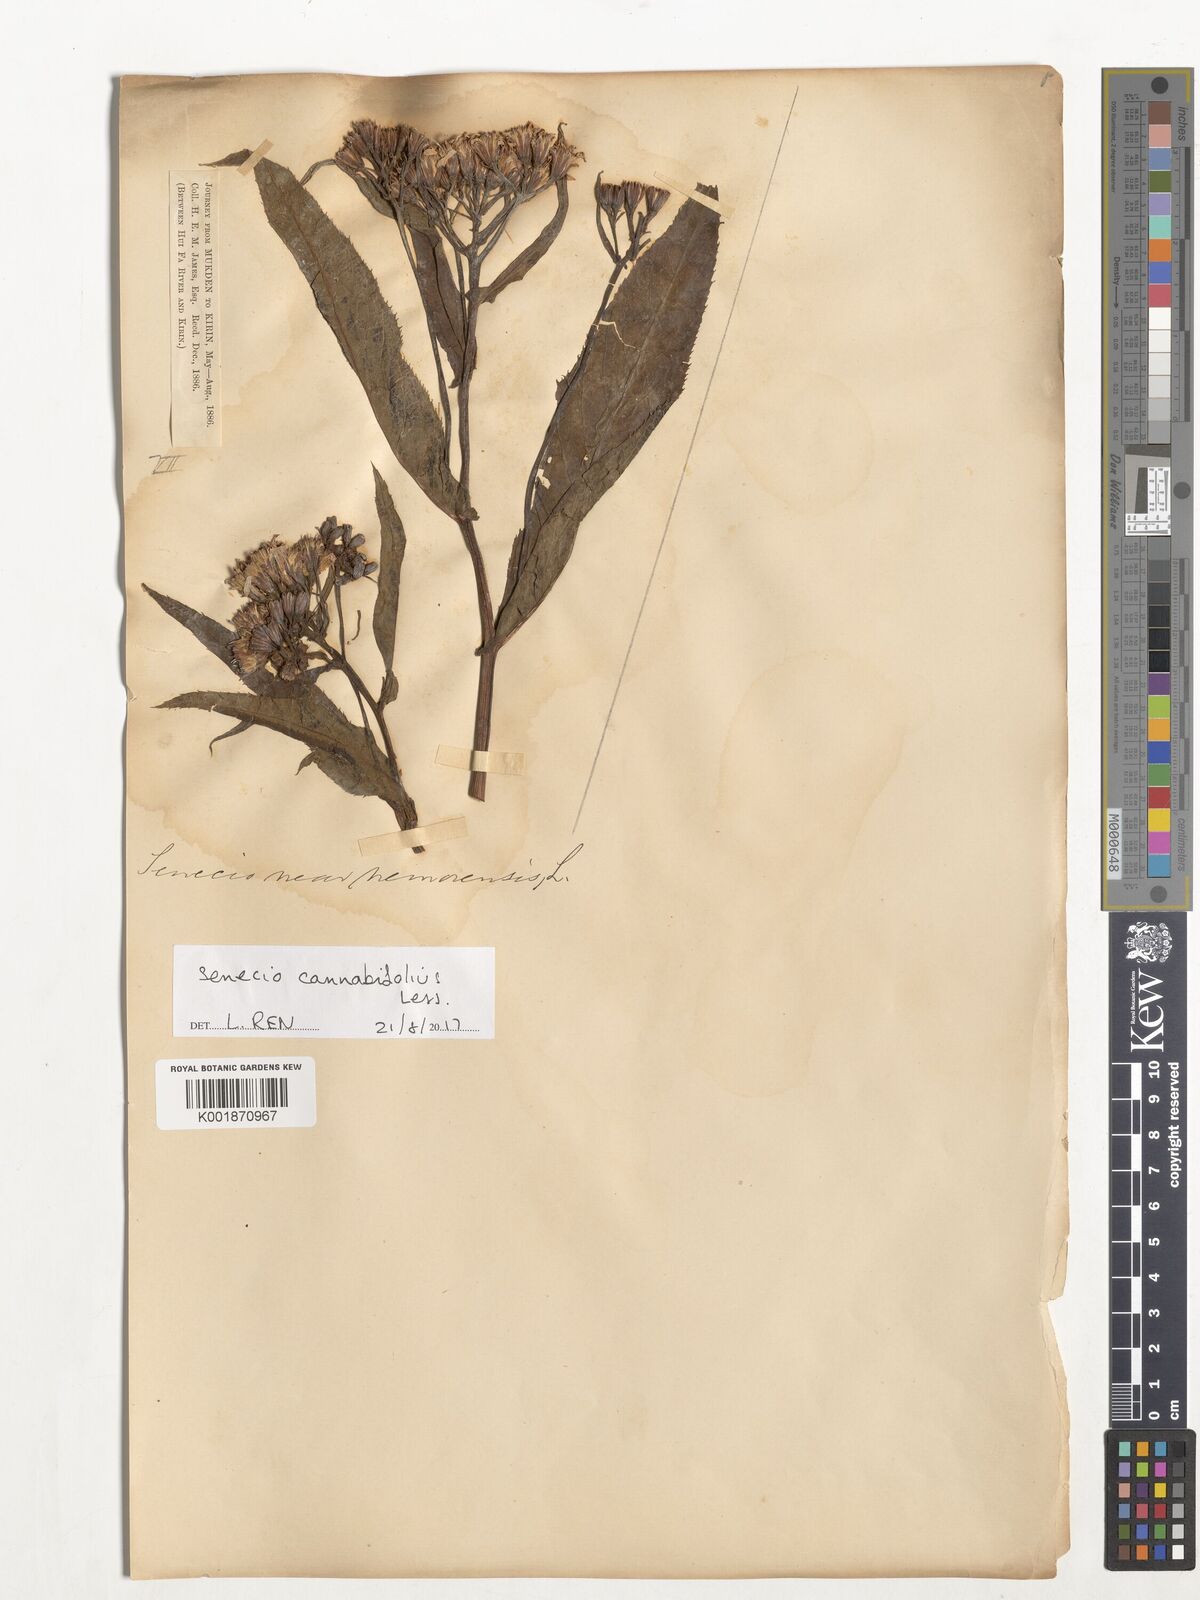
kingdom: Plantae
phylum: Tracheophyta
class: Magnoliopsida
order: Asterales
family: Asteraceae
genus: Jacobaea
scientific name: Jacobaea cannabifolia
